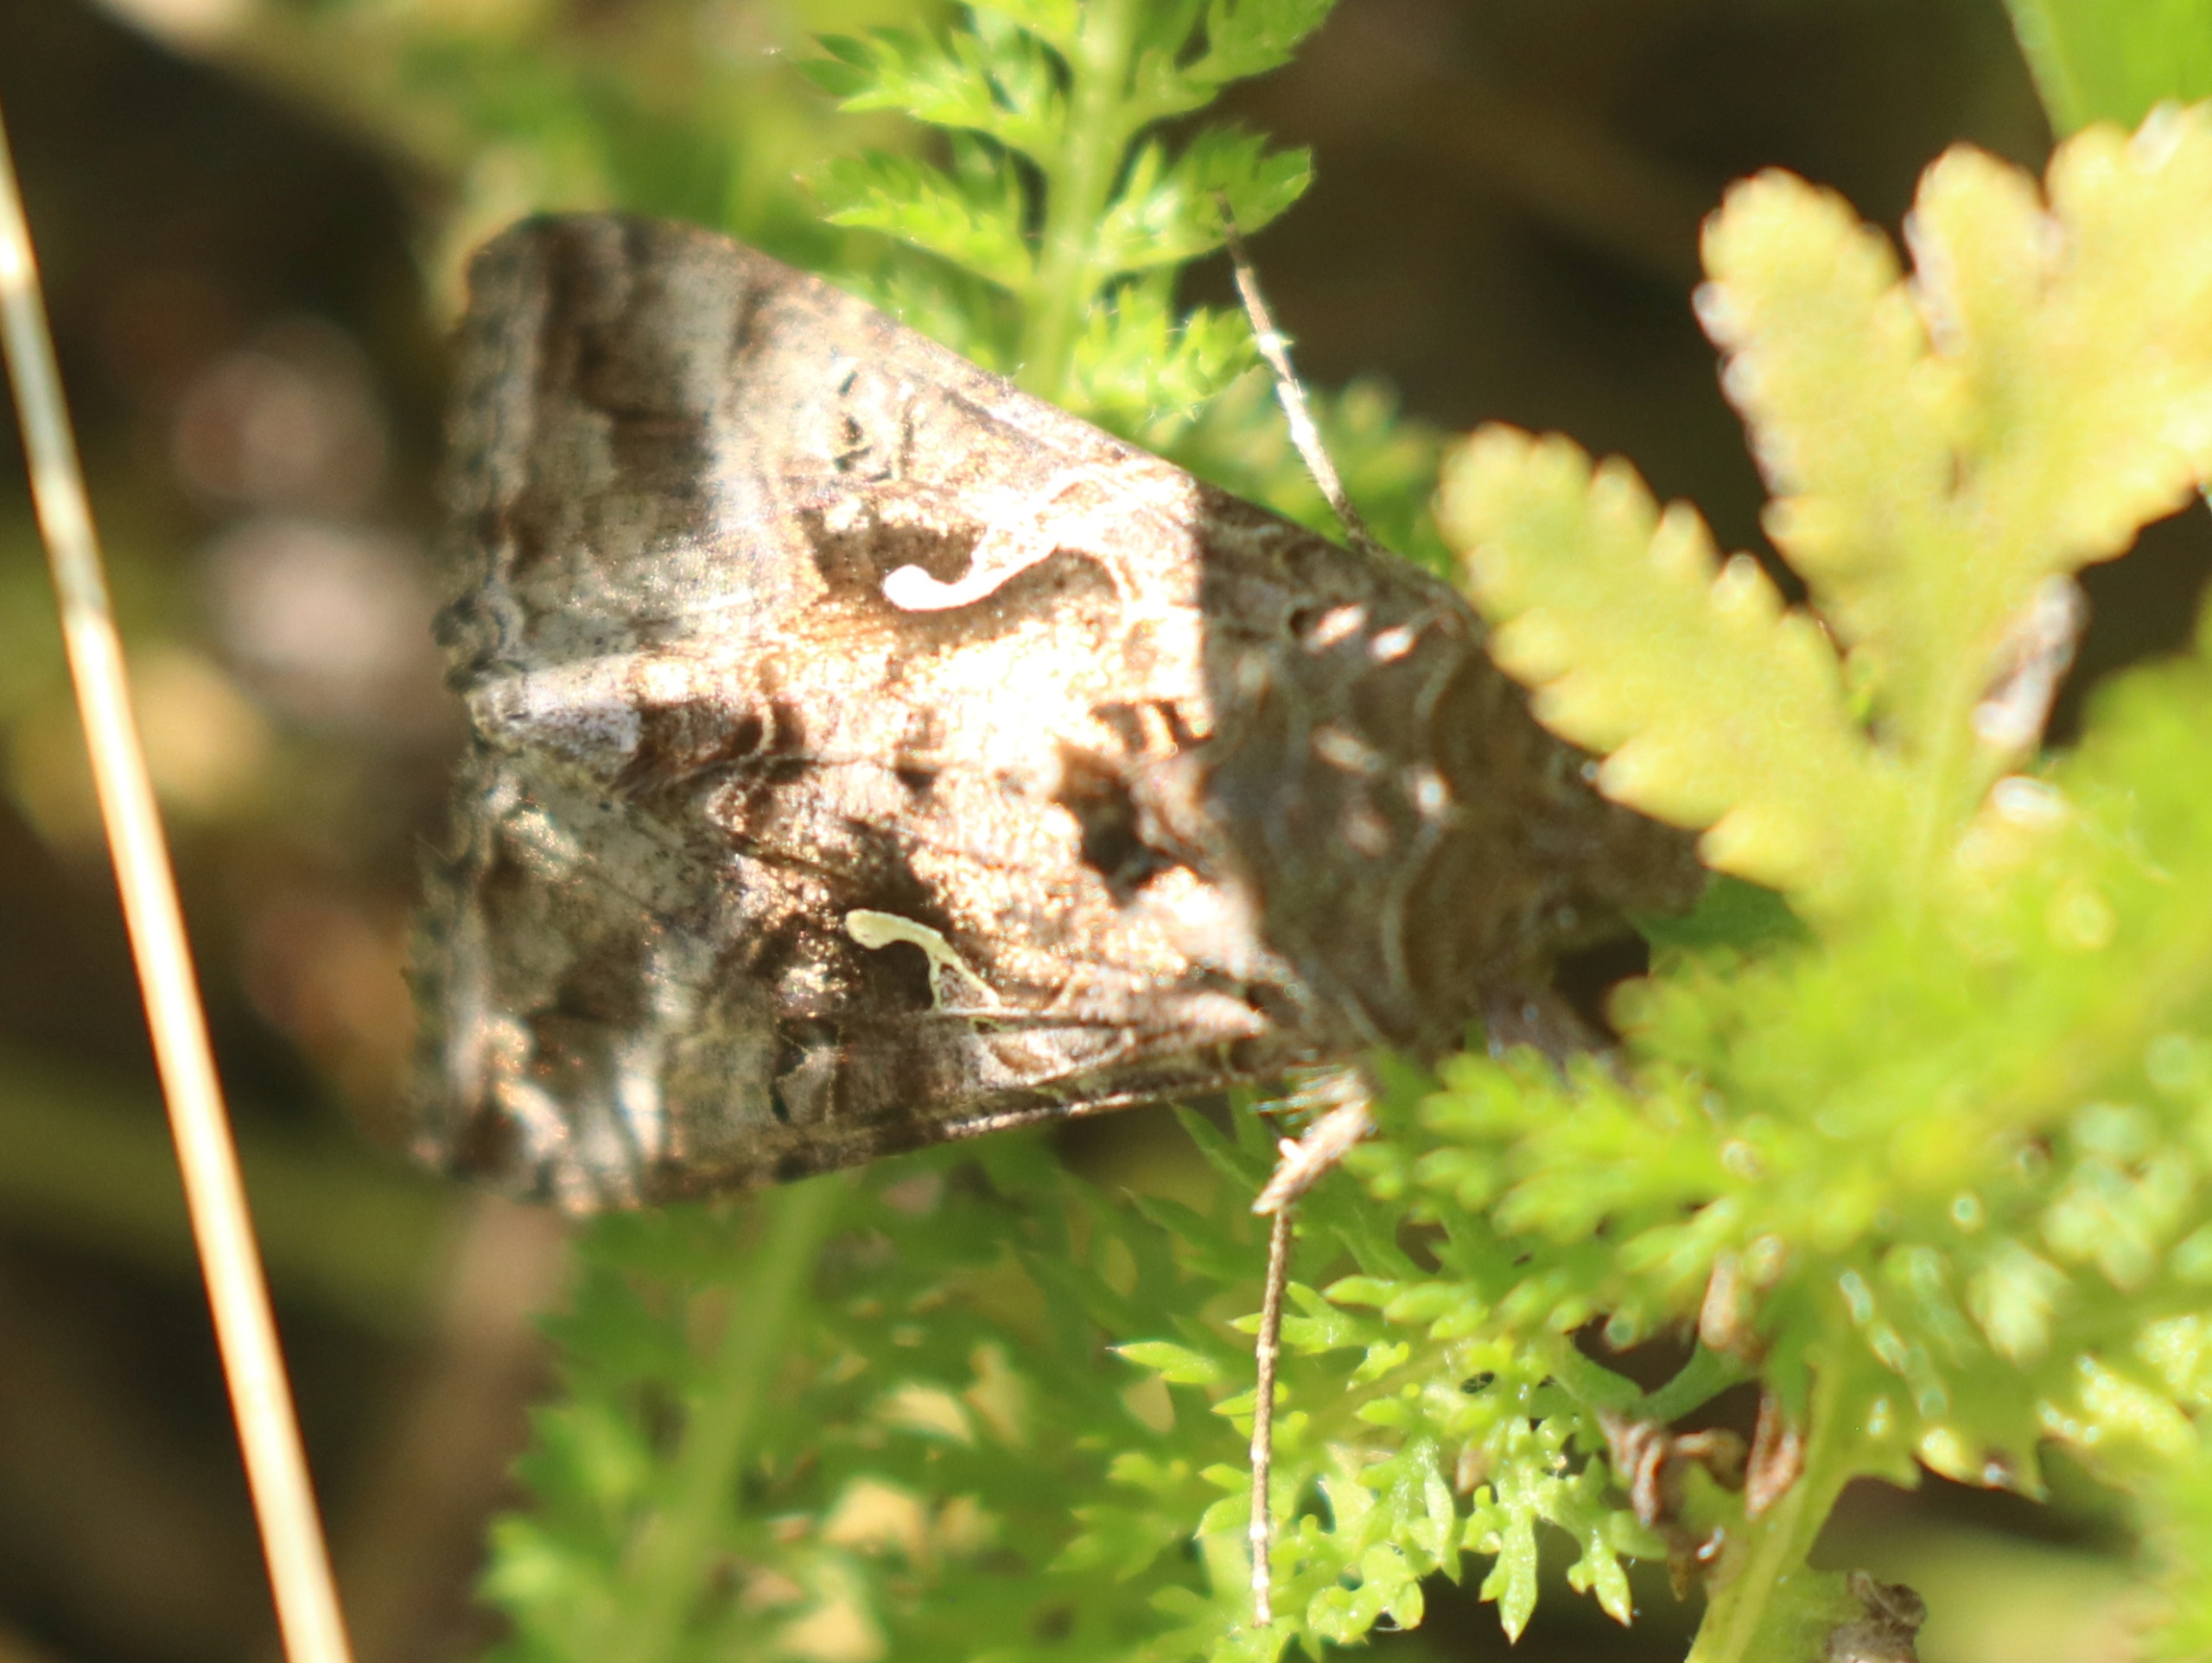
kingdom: Animalia
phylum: Arthropoda
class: Insecta
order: Lepidoptera
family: Noctuidae
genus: Autographa
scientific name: Autographa gamma
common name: Gammaugle
